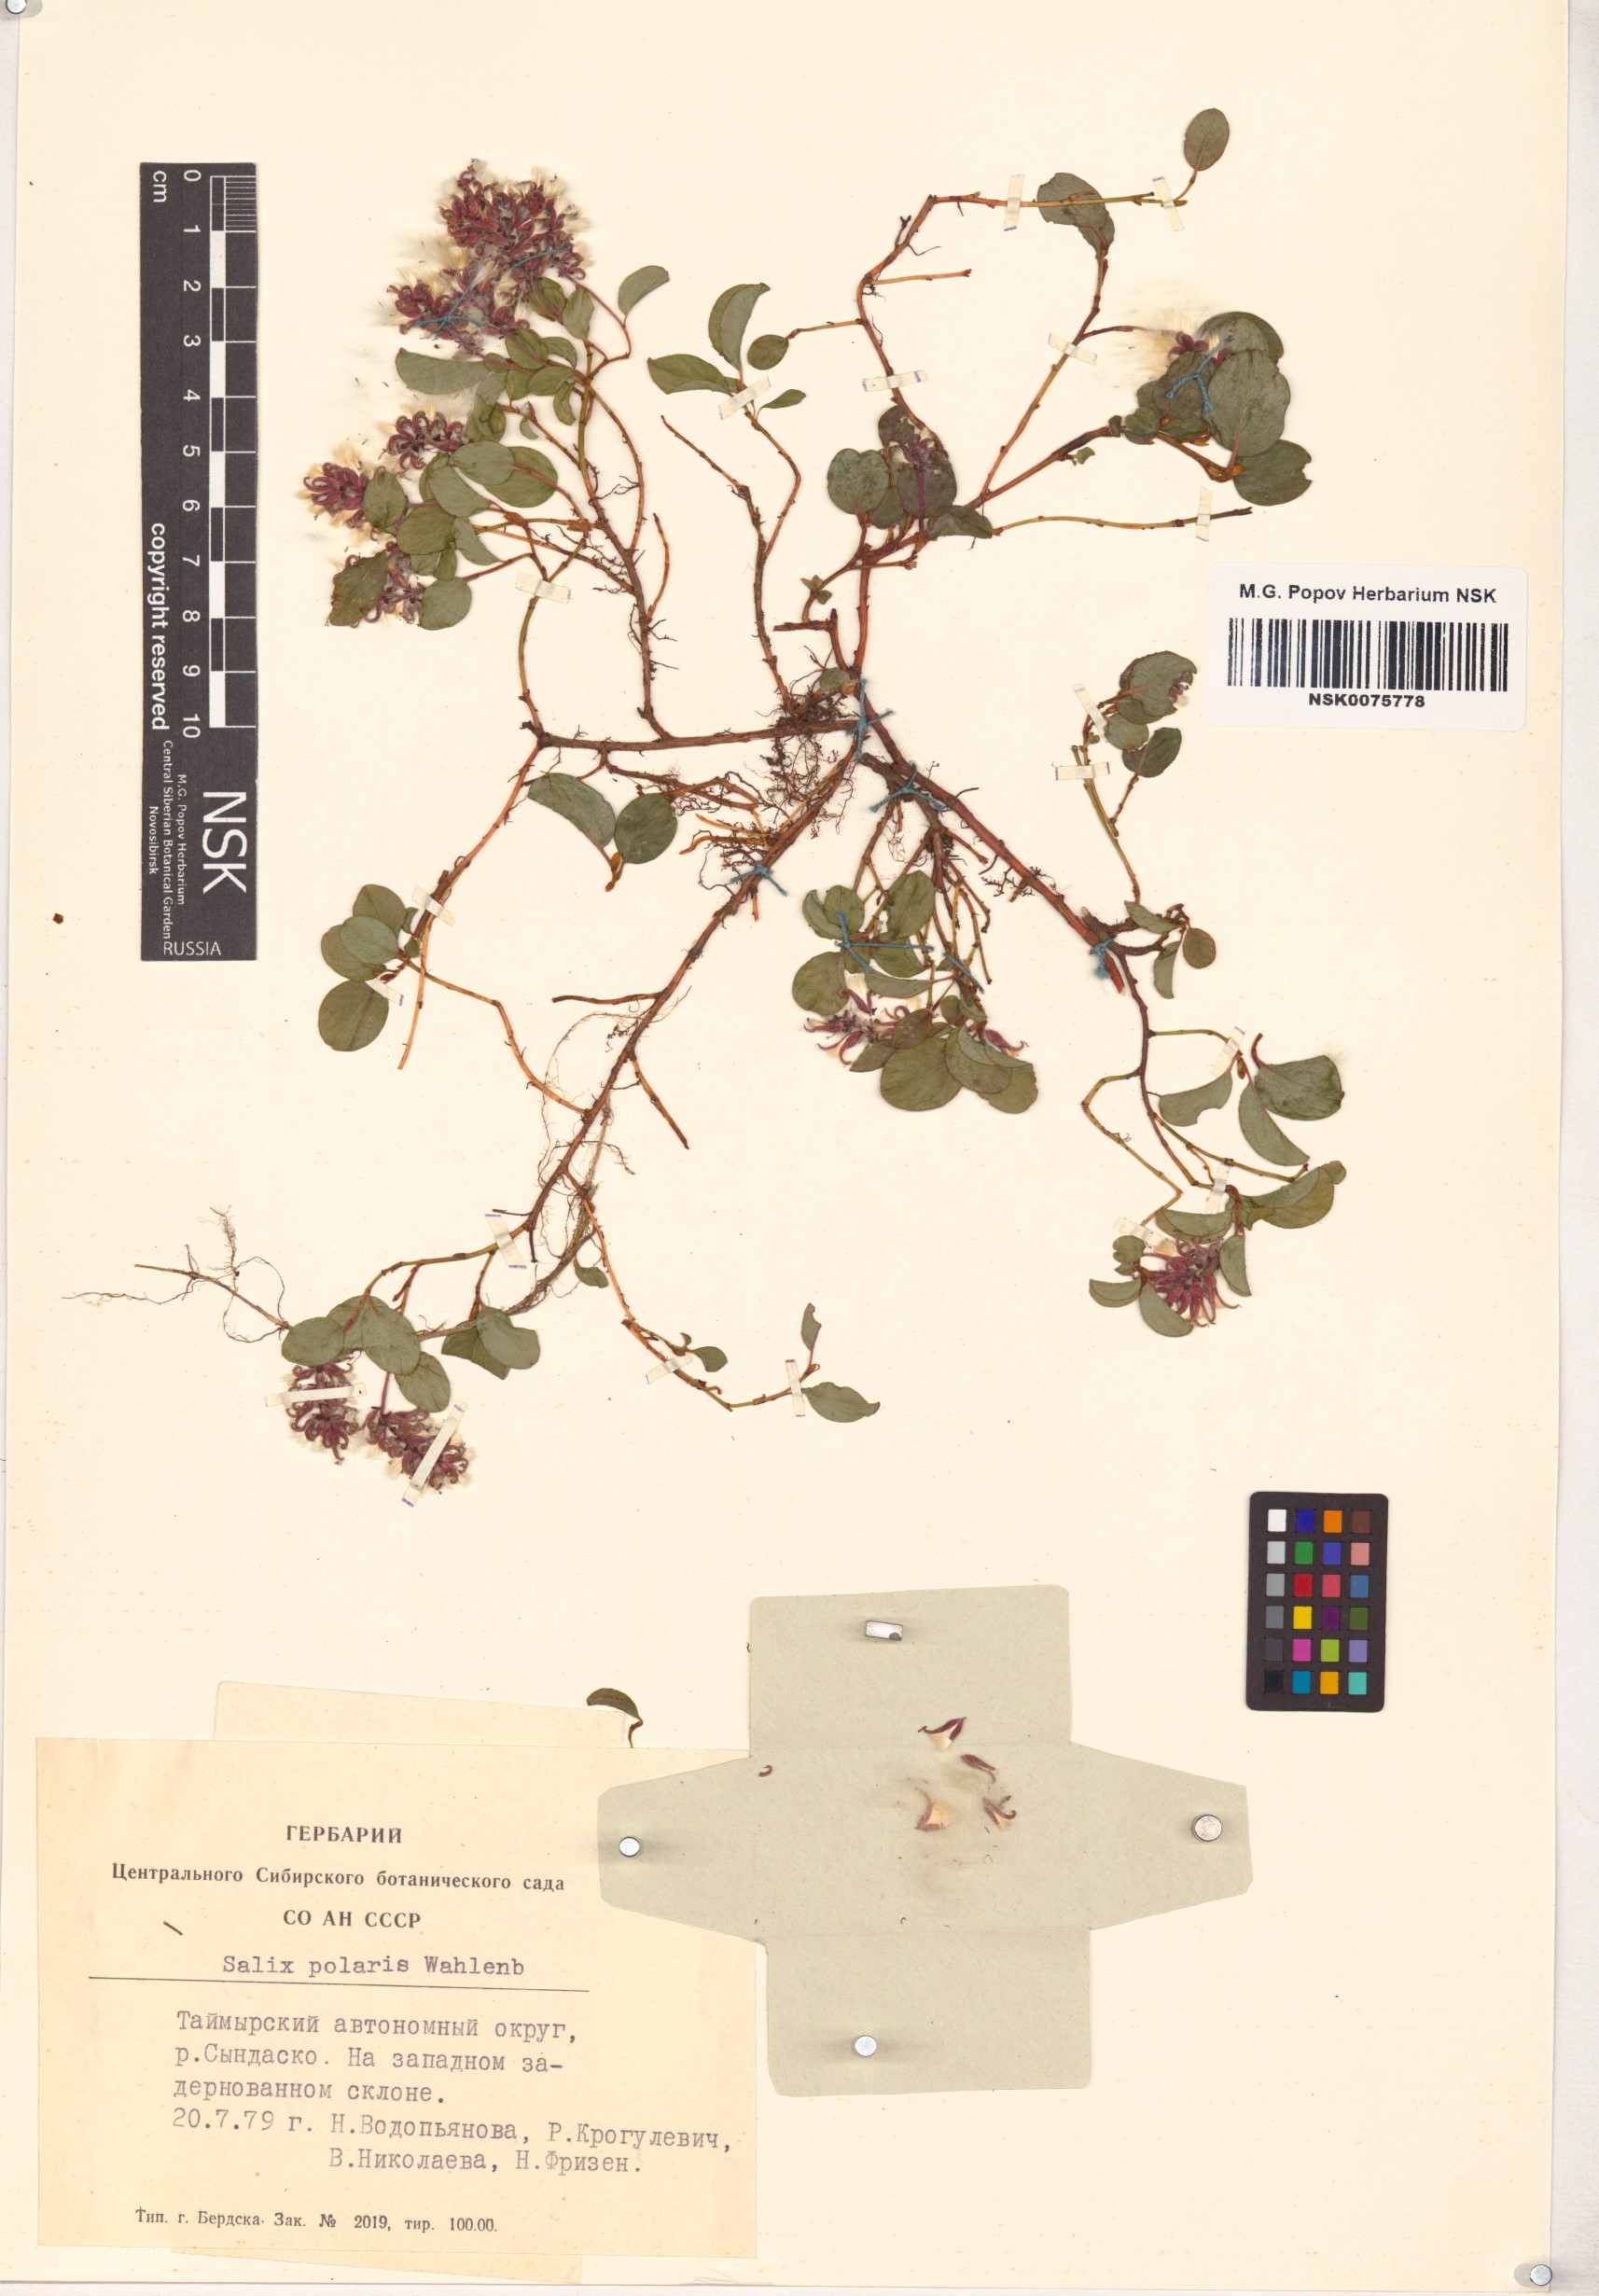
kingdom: Plantae
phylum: Tracheophyta
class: Magnoliopsida
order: Malpighiales
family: Salicaceae
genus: Salix
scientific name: Salix polaris
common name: Polar willow
